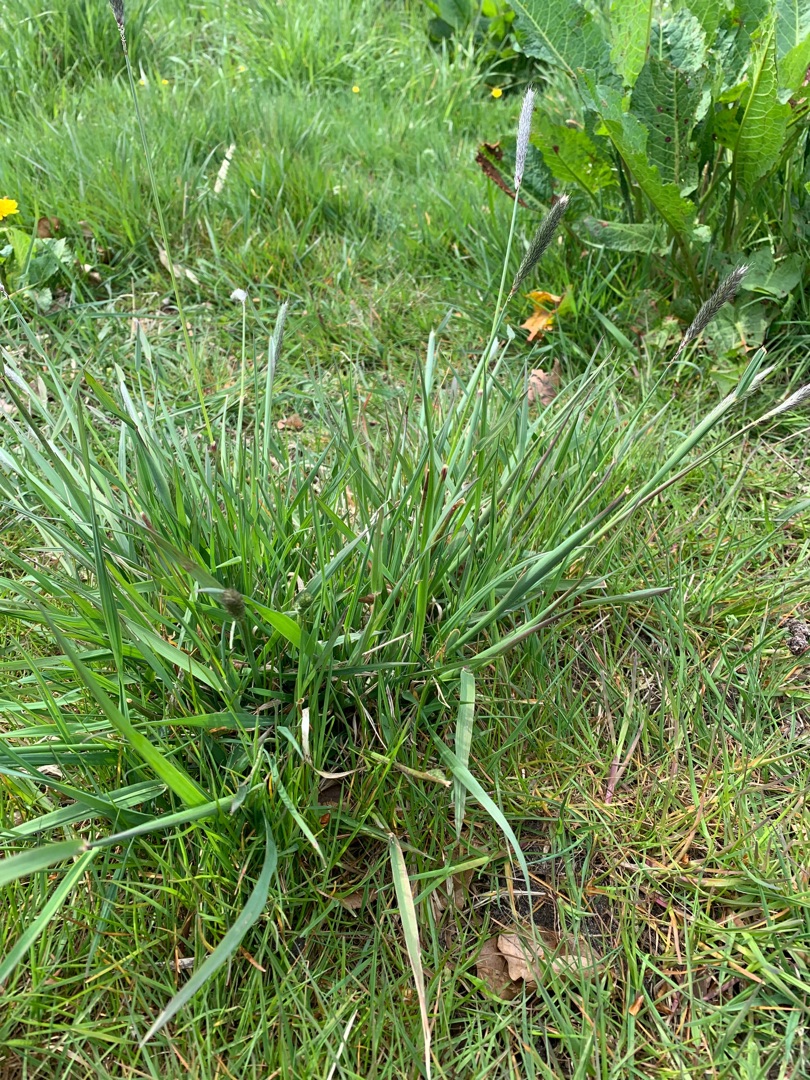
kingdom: Plantae
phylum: Tracheophyta
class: Liliopsida
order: Poales
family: Poaceae
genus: Alopecurus
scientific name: Alopecurus pratensis
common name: Eng-rævehale
